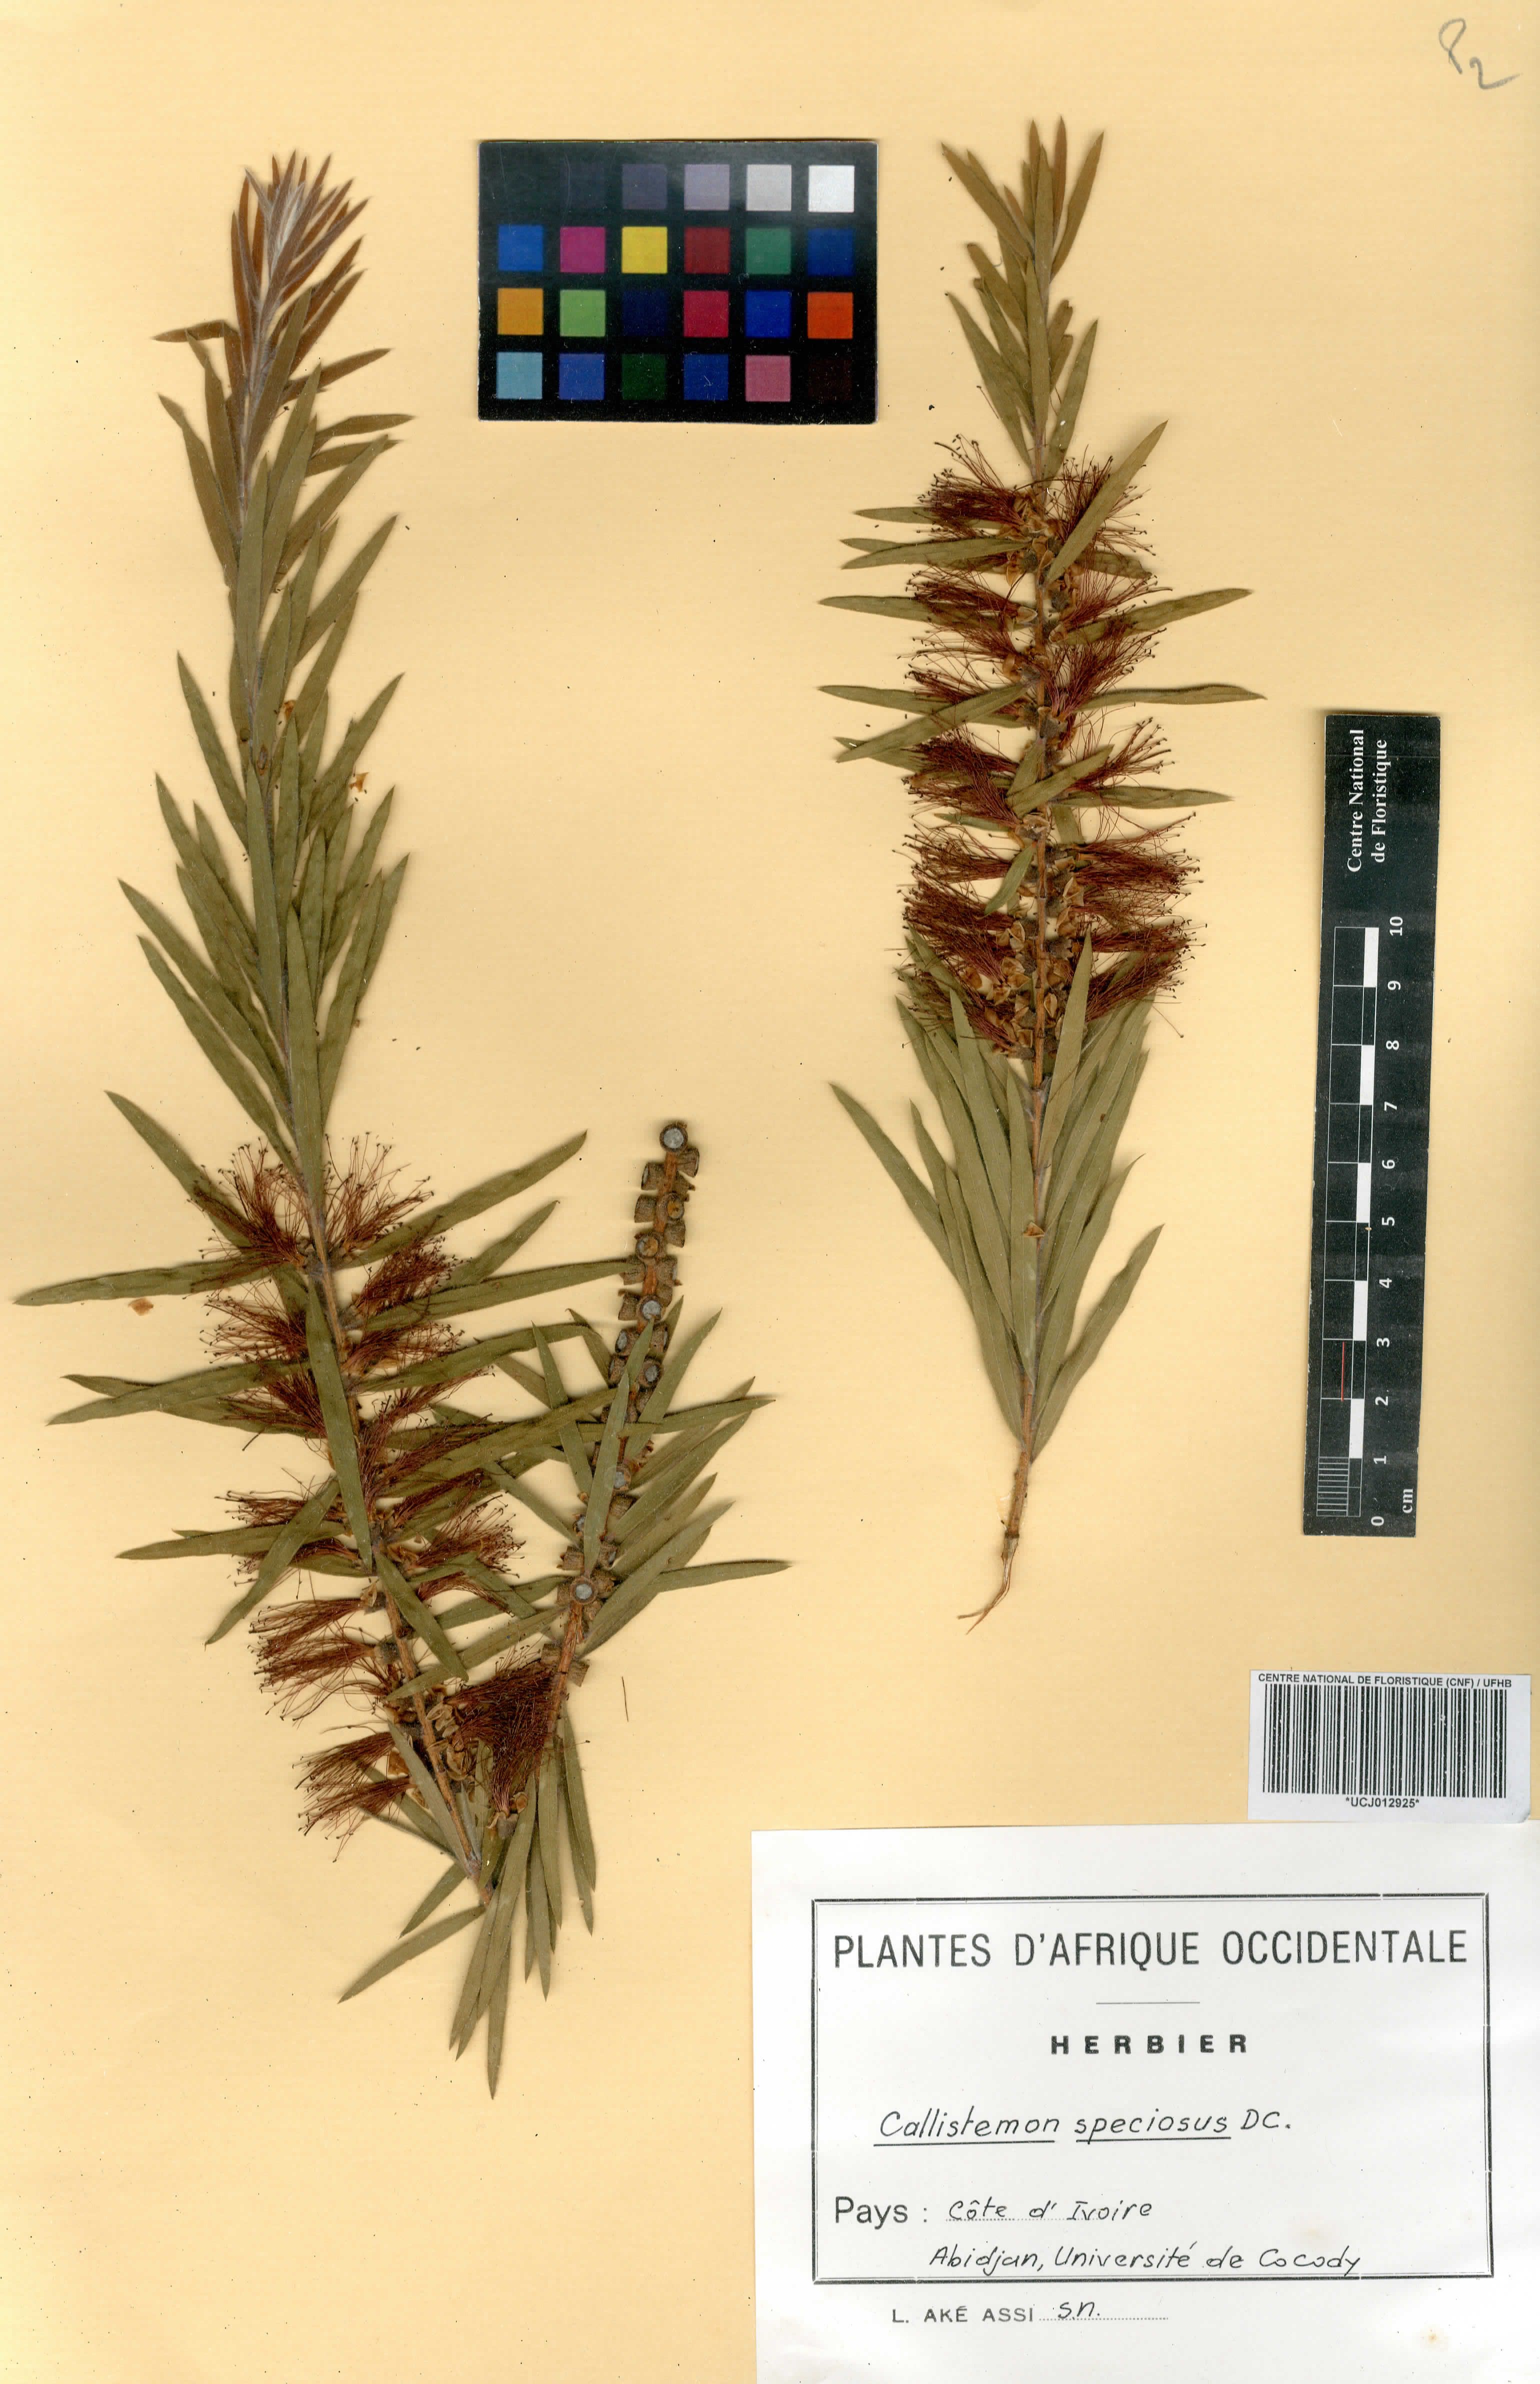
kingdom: Plantae
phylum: Tracheophyta
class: Magnoliopsida
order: Myrtales
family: Myrtaceae
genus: Callistemon
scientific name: Callistemon speciosus
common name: Albany bottlebrush
